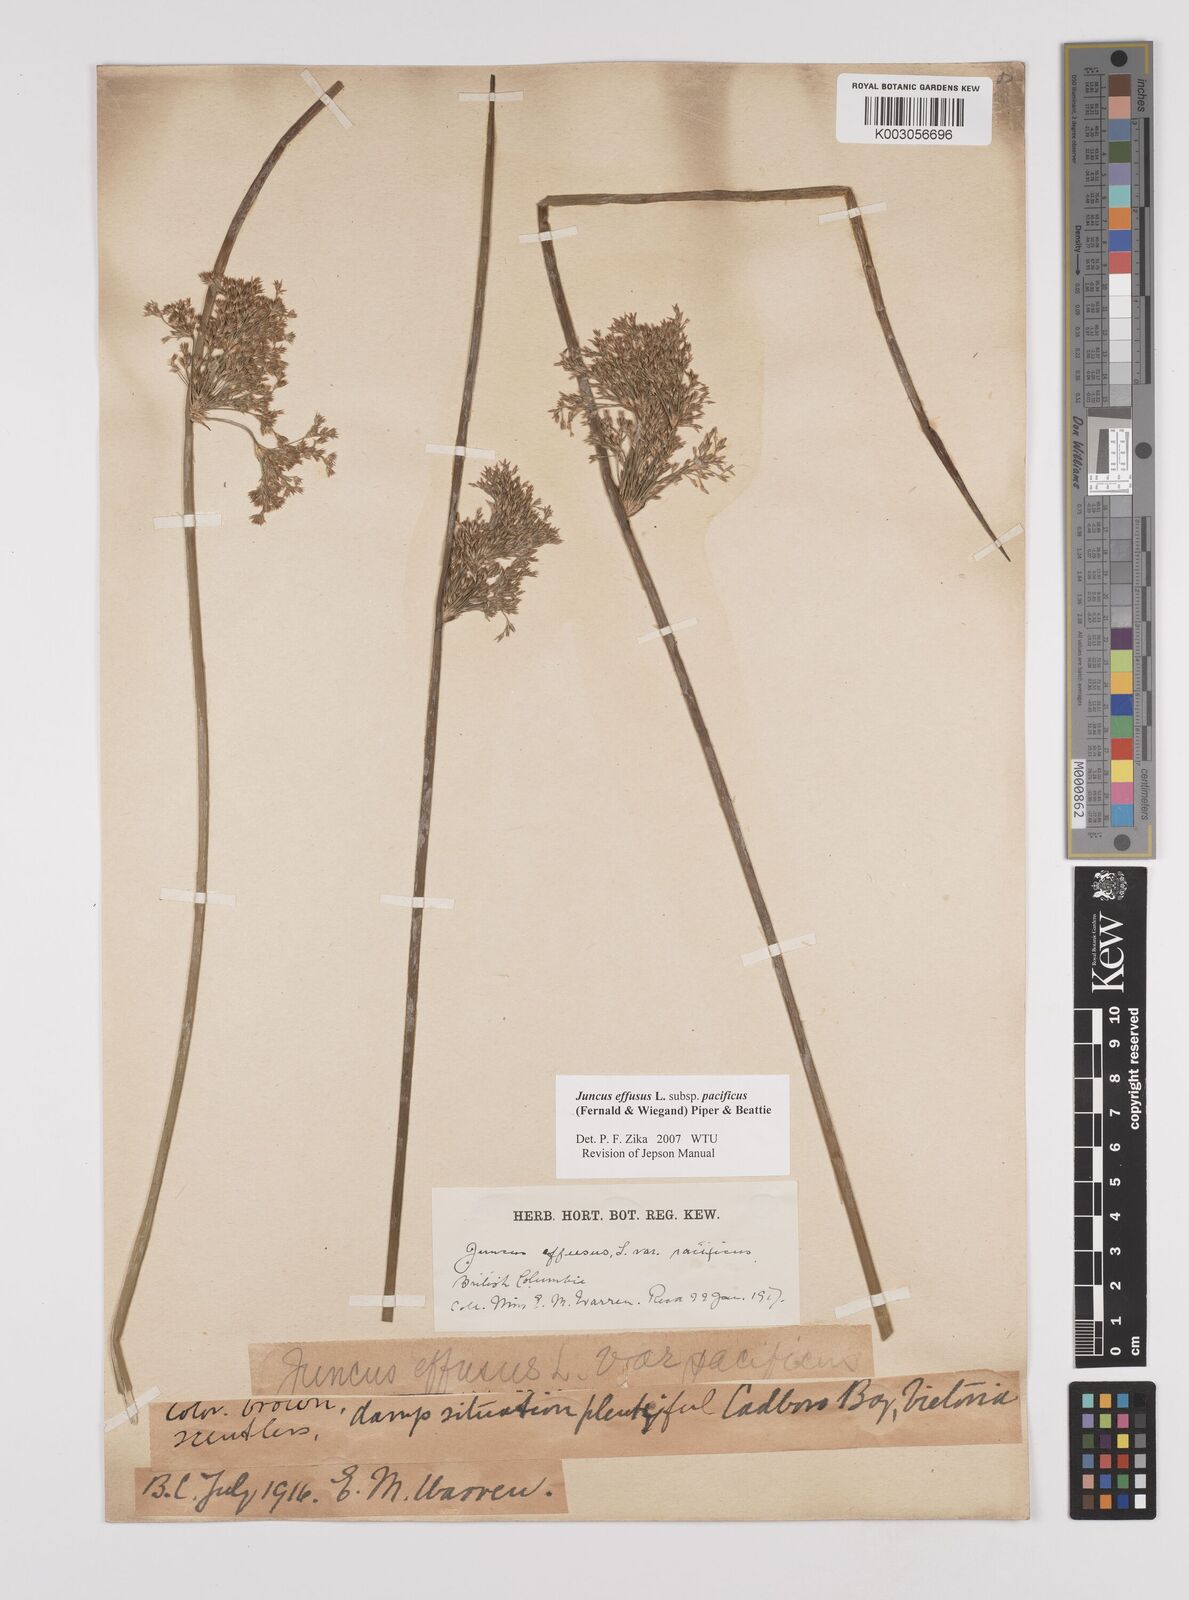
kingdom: Plantae
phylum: Tracheophyta
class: Liliopsida
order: Poales
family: Juncaceae
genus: Juncus
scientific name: Juncus effusus
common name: Soft rush
